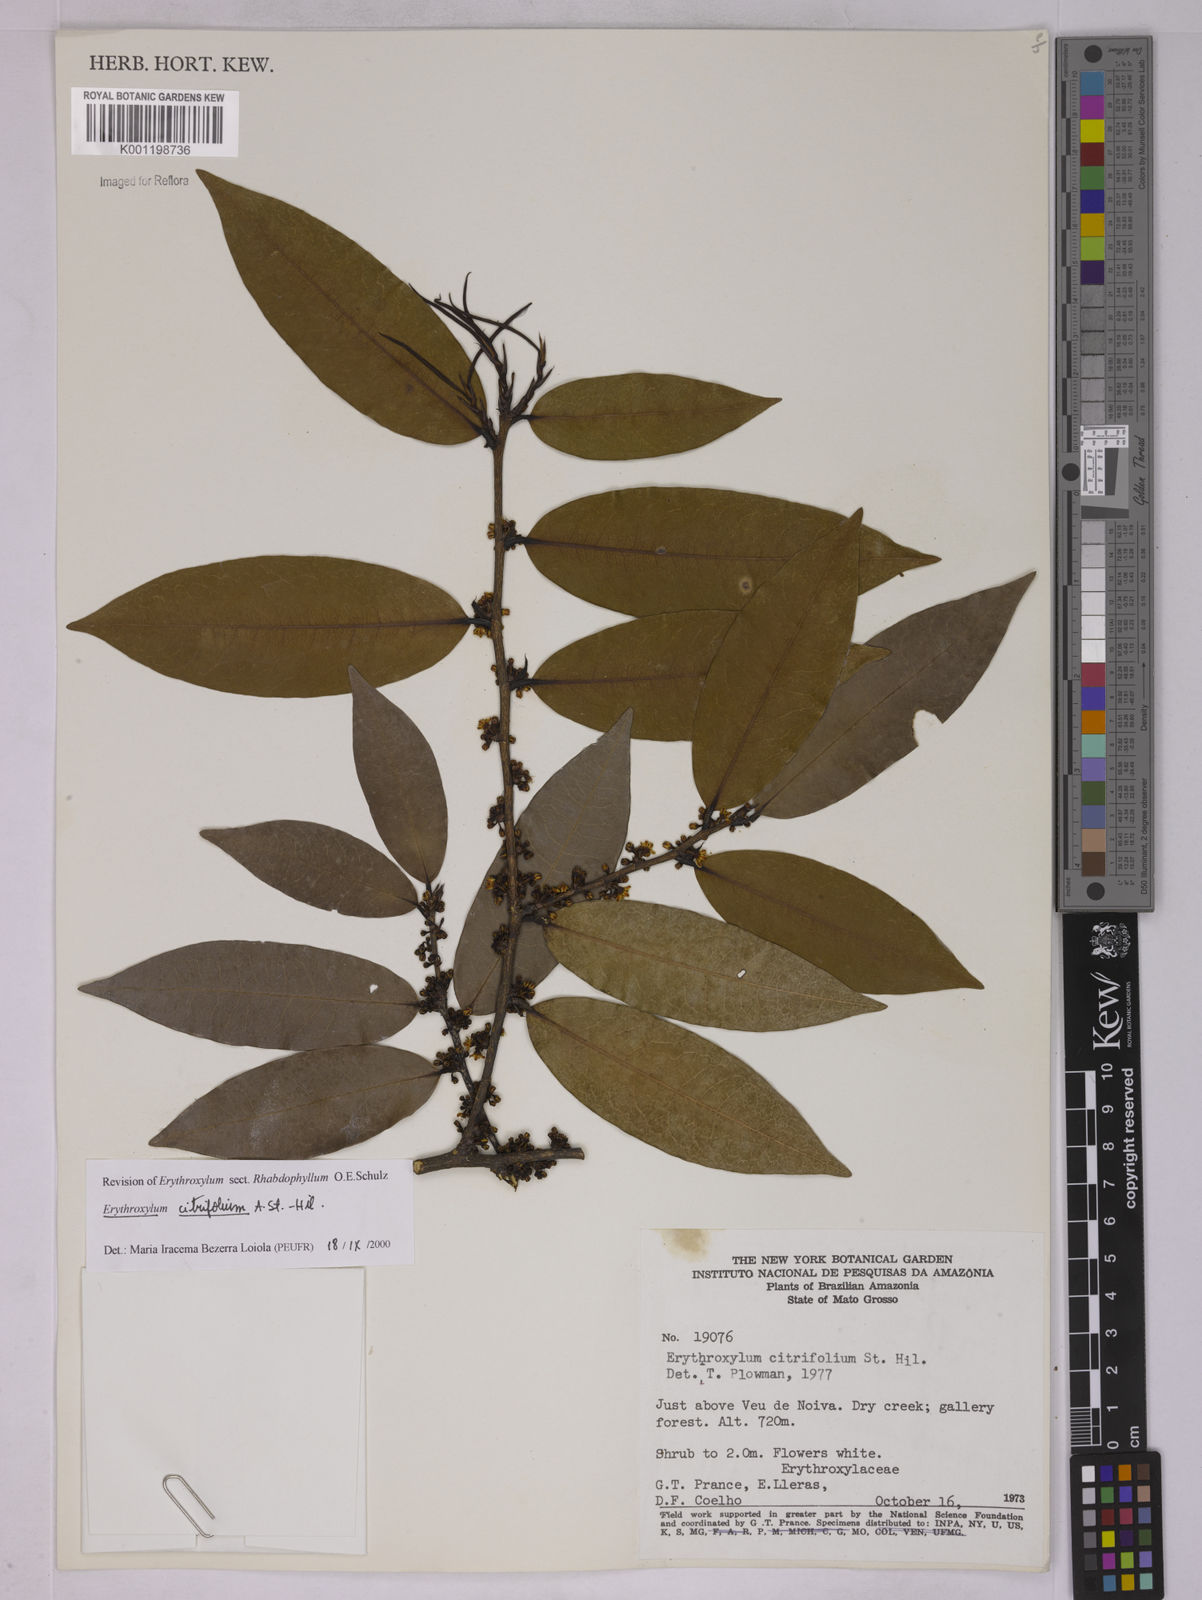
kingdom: Plantae
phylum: Tracheophyta
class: Magnoliopsida
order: Malpighiales
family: Erythroxylaceae
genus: Erythroxylum
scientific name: Erythroxylum citrifolium
